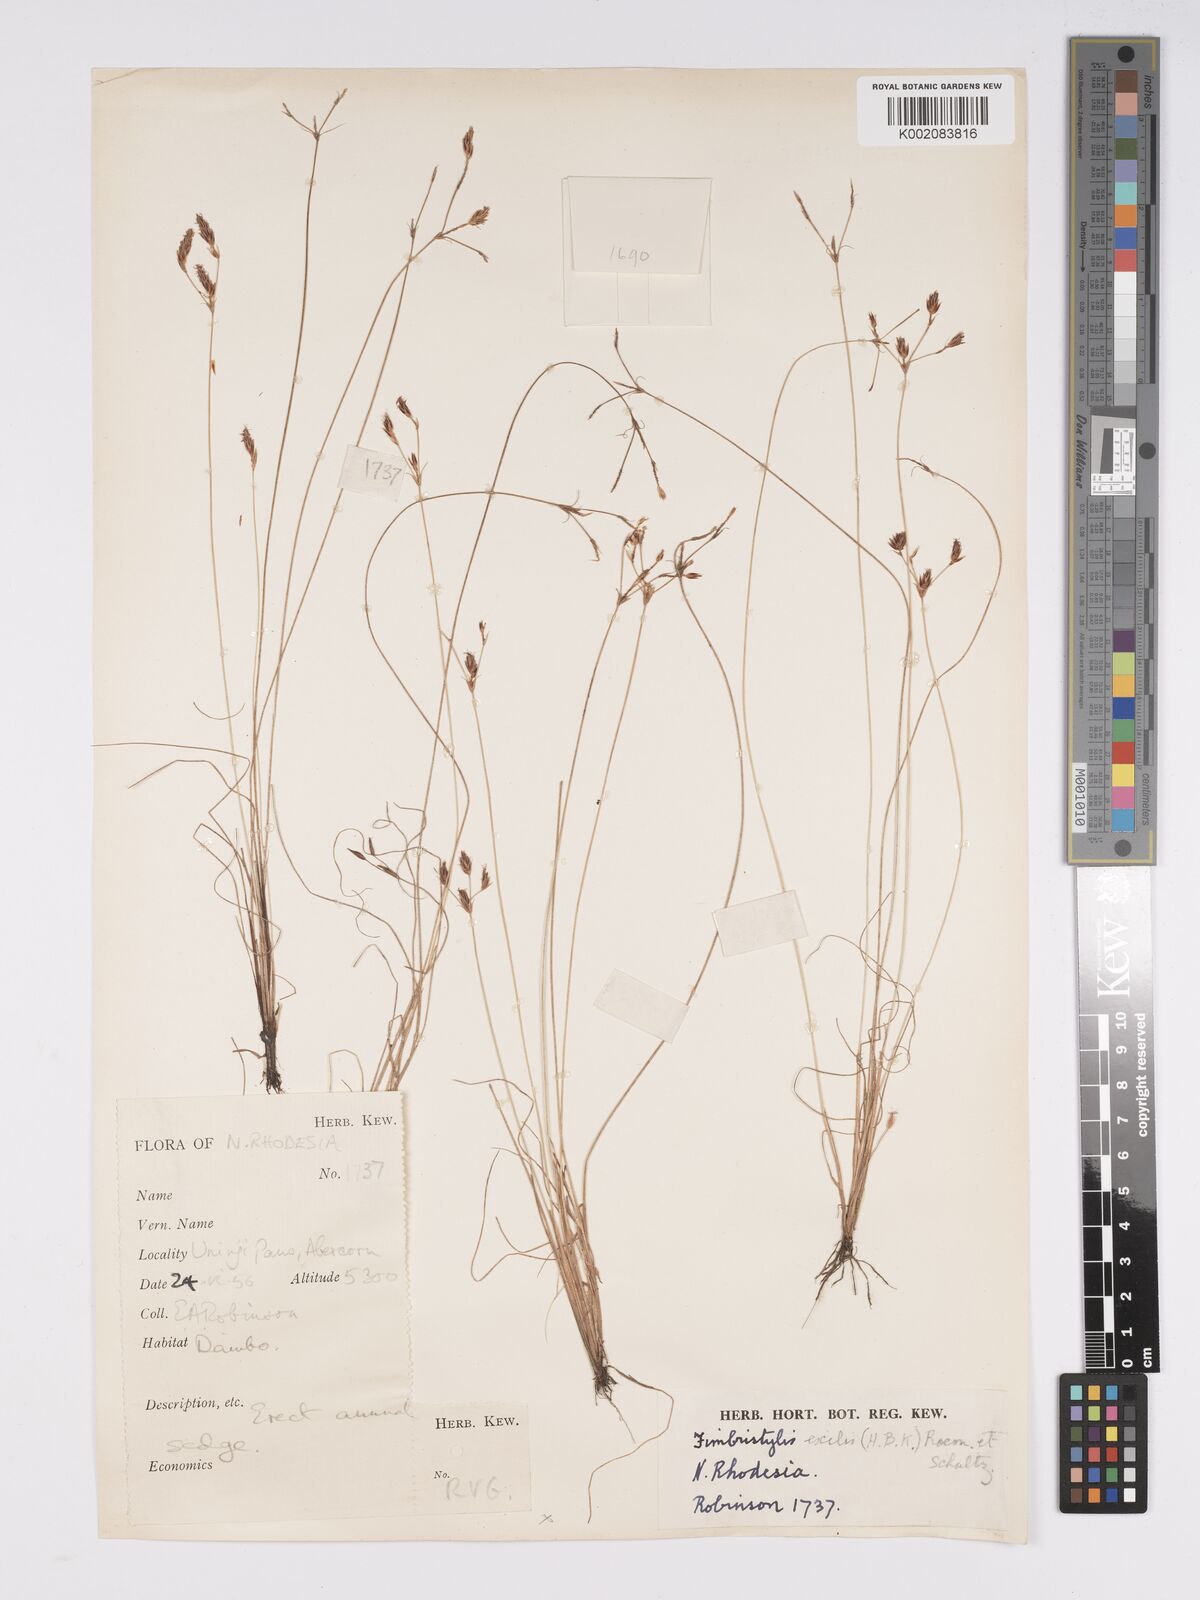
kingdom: Plantae
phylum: Tracheophyta
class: Liliopsida
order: Poales
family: Cyperaceae
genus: Bulbostylis
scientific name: Bulbostylis hispidula
